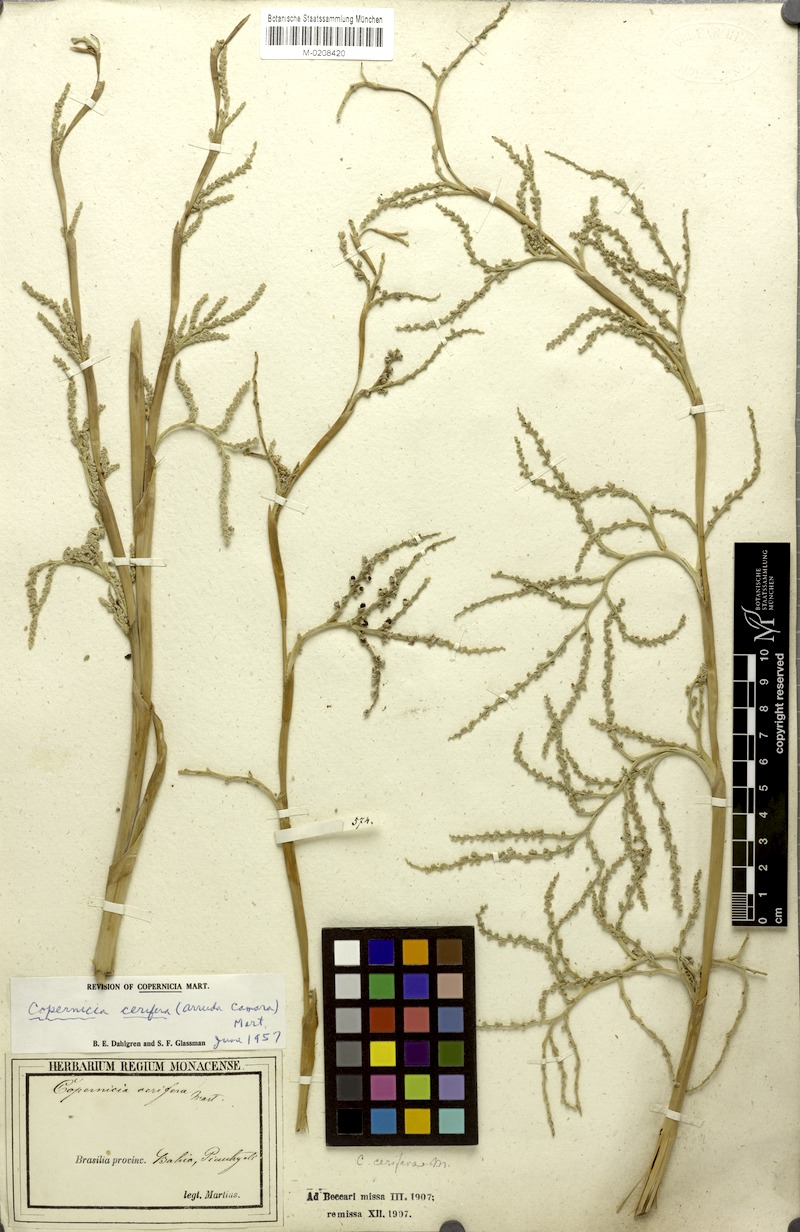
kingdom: Plantae
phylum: Tracheophyta
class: Liliopsida
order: Arecales
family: Arecaceae
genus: Copernicia
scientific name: Copernicia prunifera
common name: Carnauba palm
